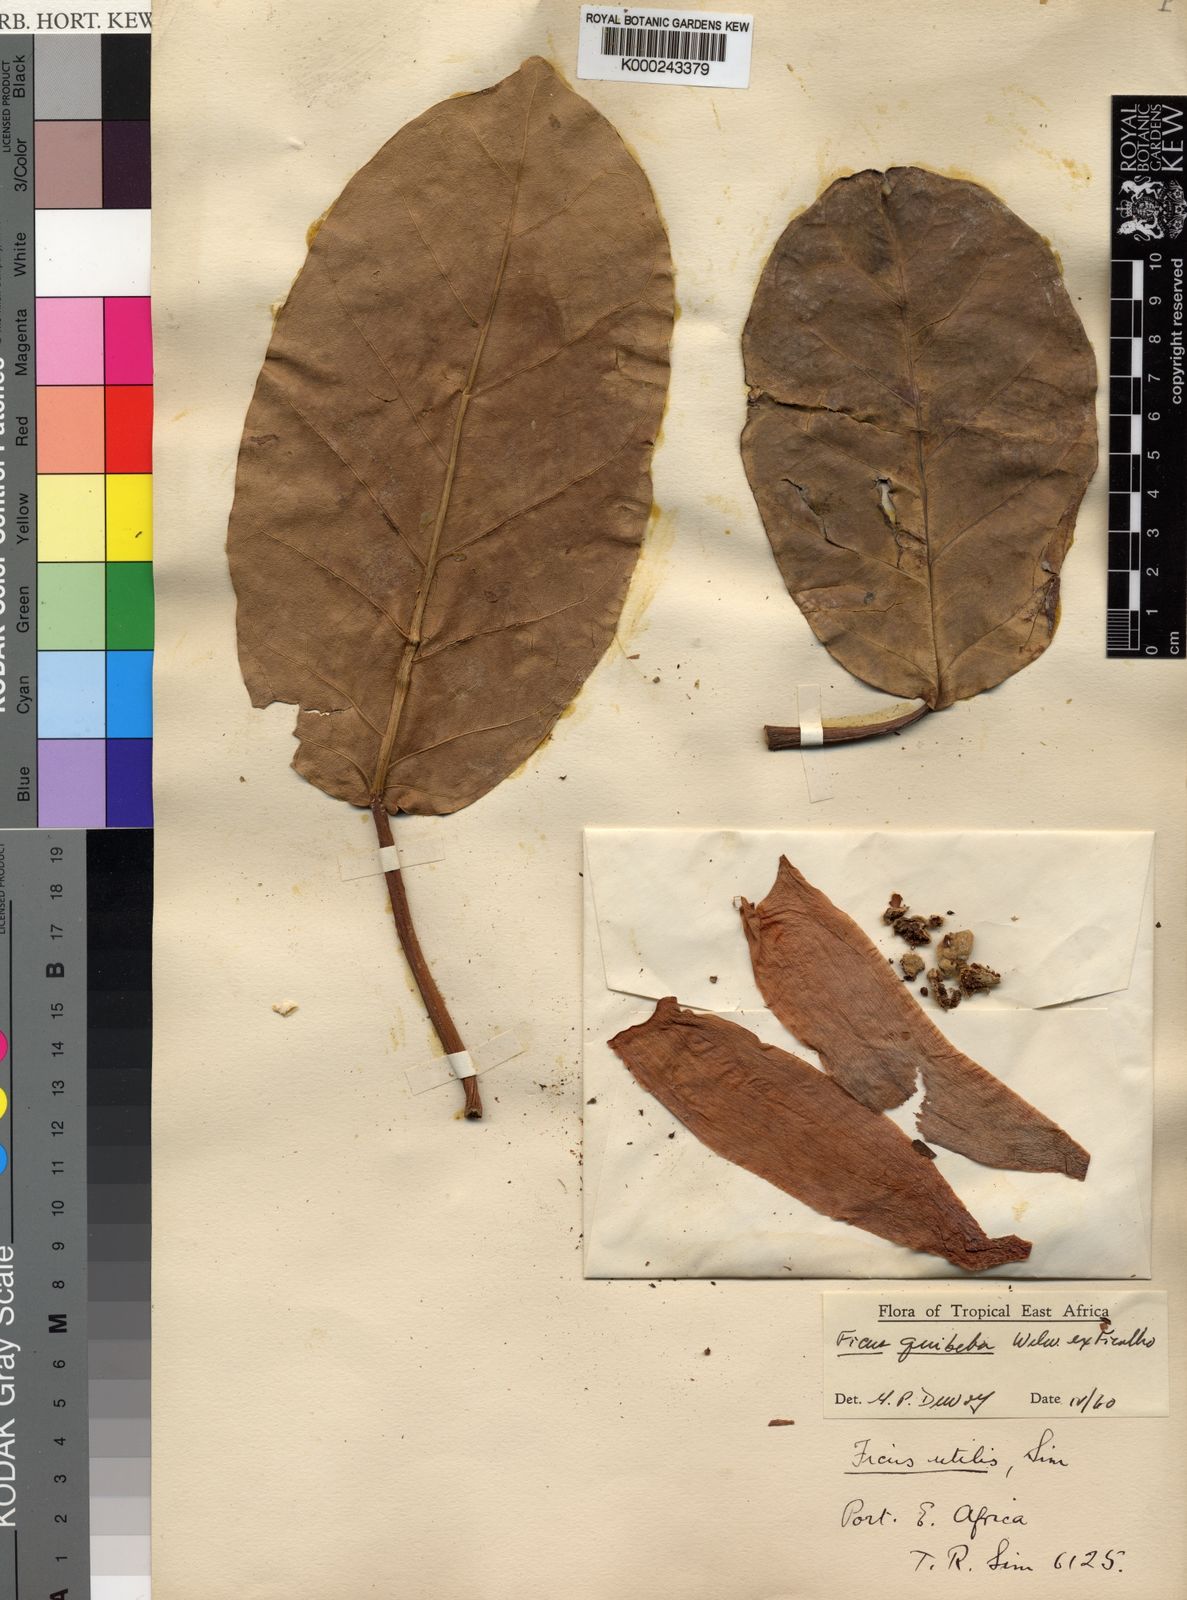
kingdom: Plantae
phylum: Tracheophyta
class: Magnoliopsida
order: Rosales
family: Moraceae
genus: Ficus
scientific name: Ficus lutea
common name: Giant-leaved fig
